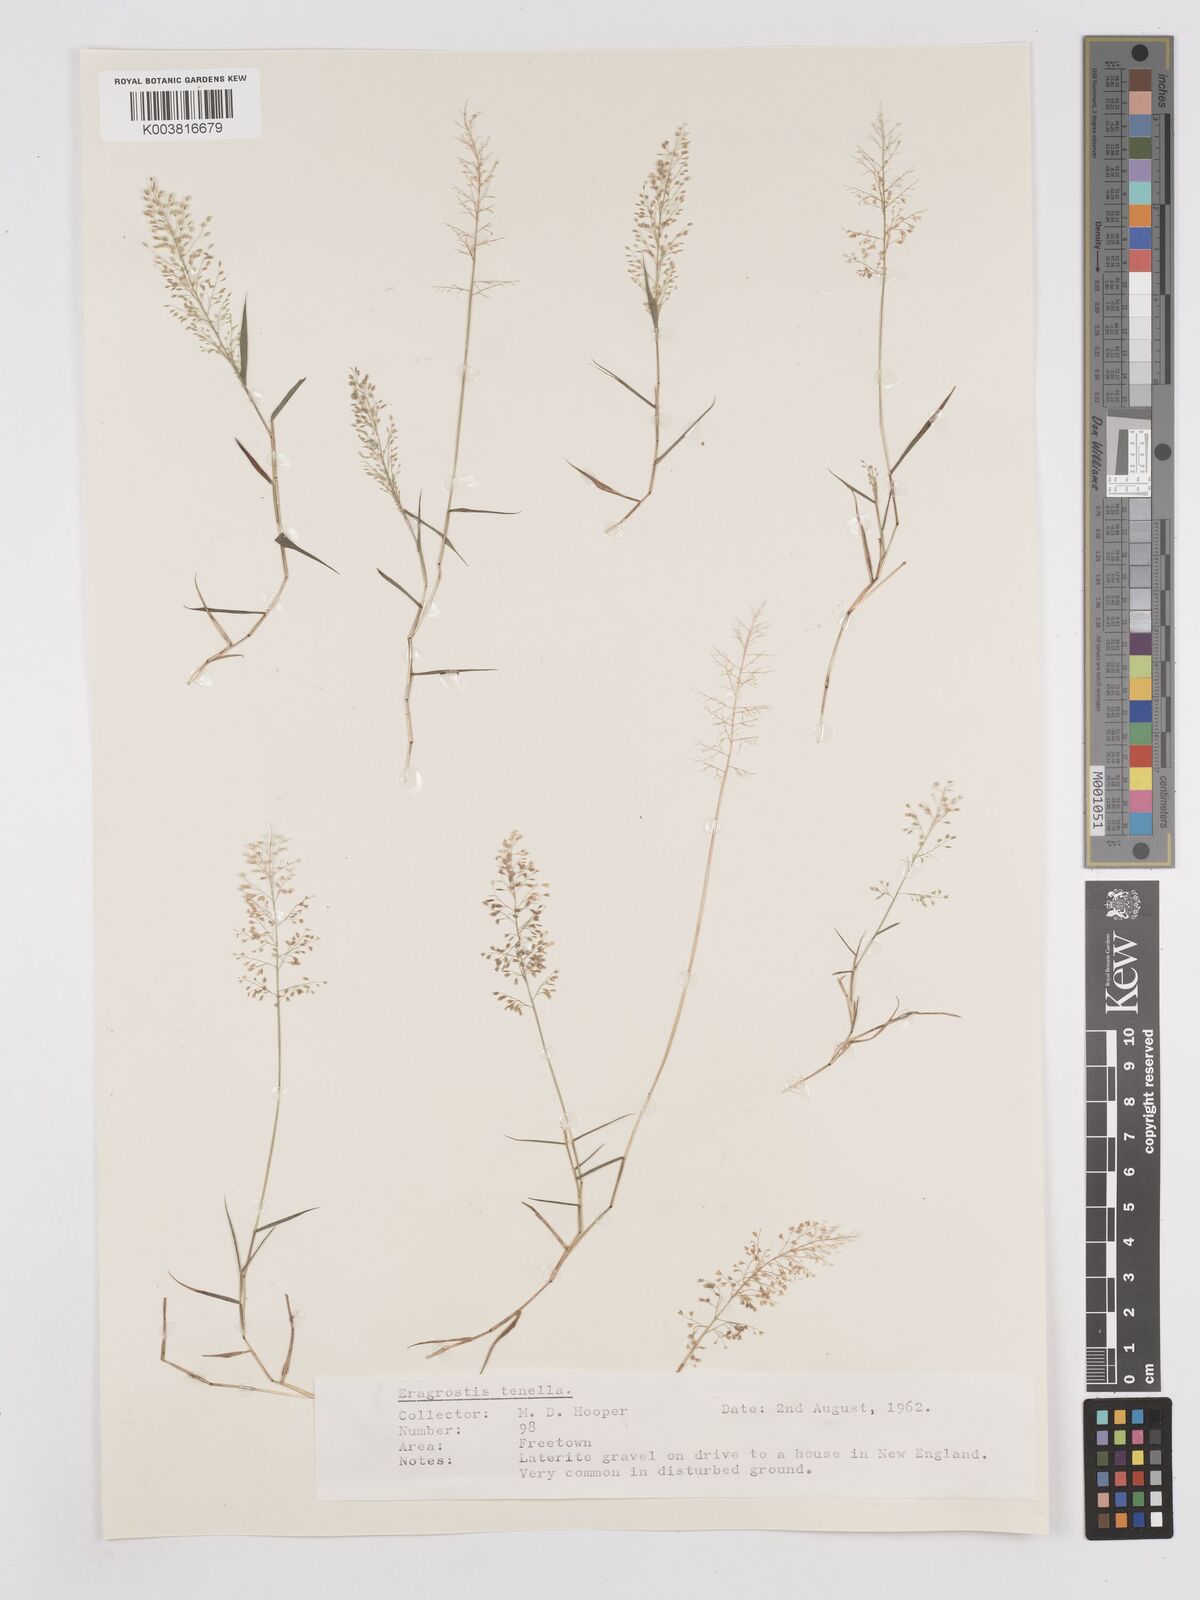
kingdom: Plantae
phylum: Tracheophyta
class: Liliopsida
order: Poales
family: Poaceae
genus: Eragrostis
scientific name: Eragrostis tenella
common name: Japanese lovegrass
